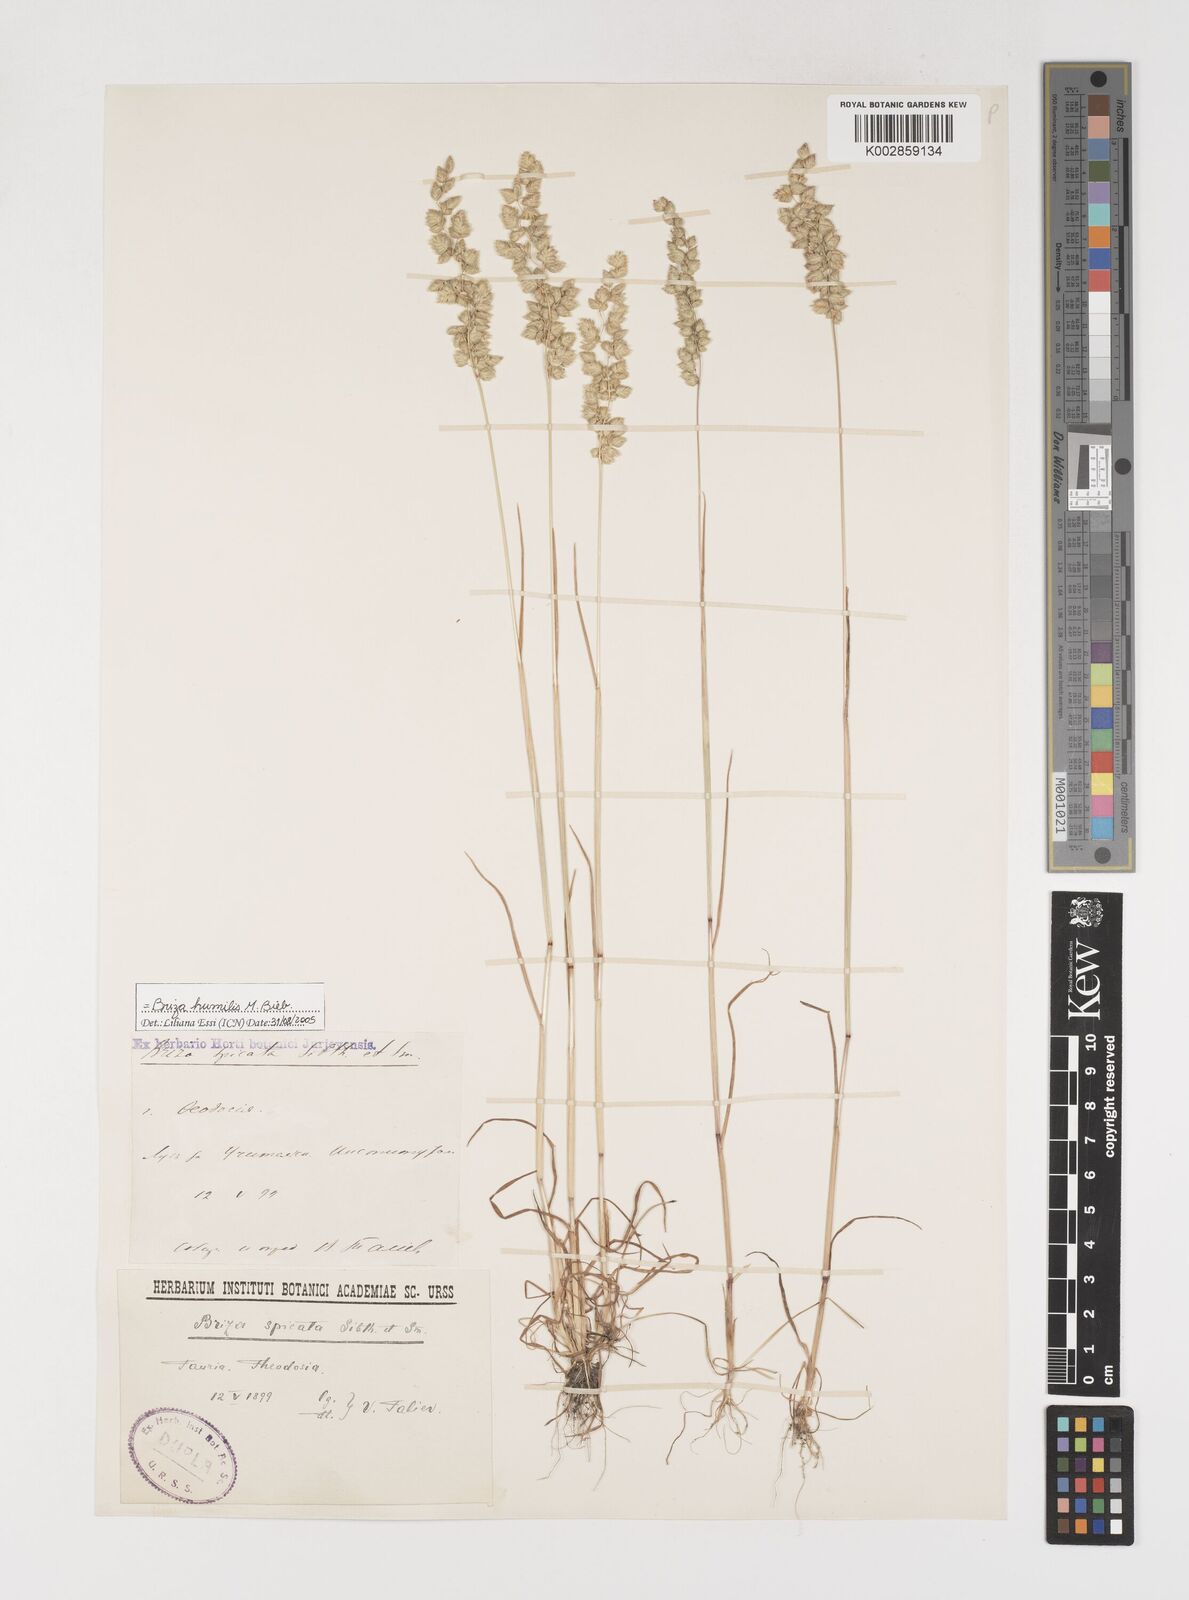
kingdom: Plantae
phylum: Tracheophyta
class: Liliopsida
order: Poales
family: Poaceae
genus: Briza
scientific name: Briza humilis
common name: Spiked quaking grass
